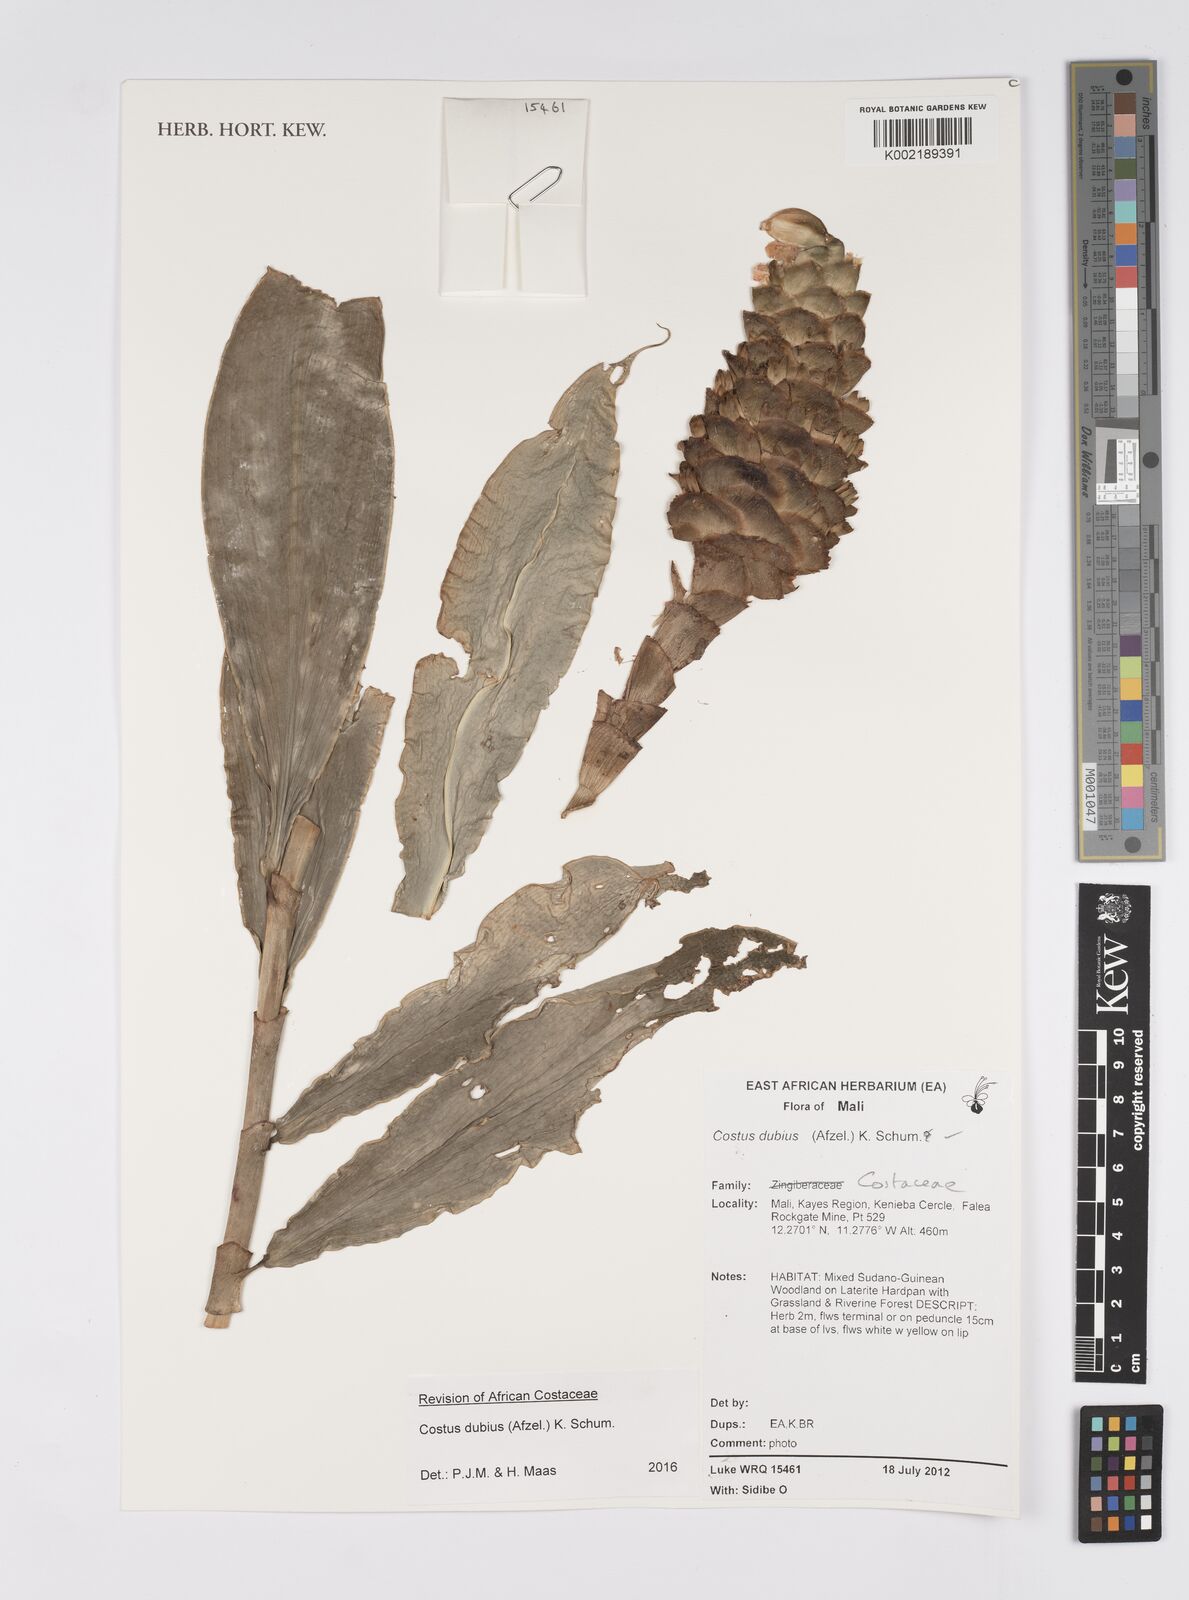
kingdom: Plantae
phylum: Tracheophyta
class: Liliopsida
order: Zingiberales
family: Costaceae
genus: Costus
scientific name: Costus dubius
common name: Costus
